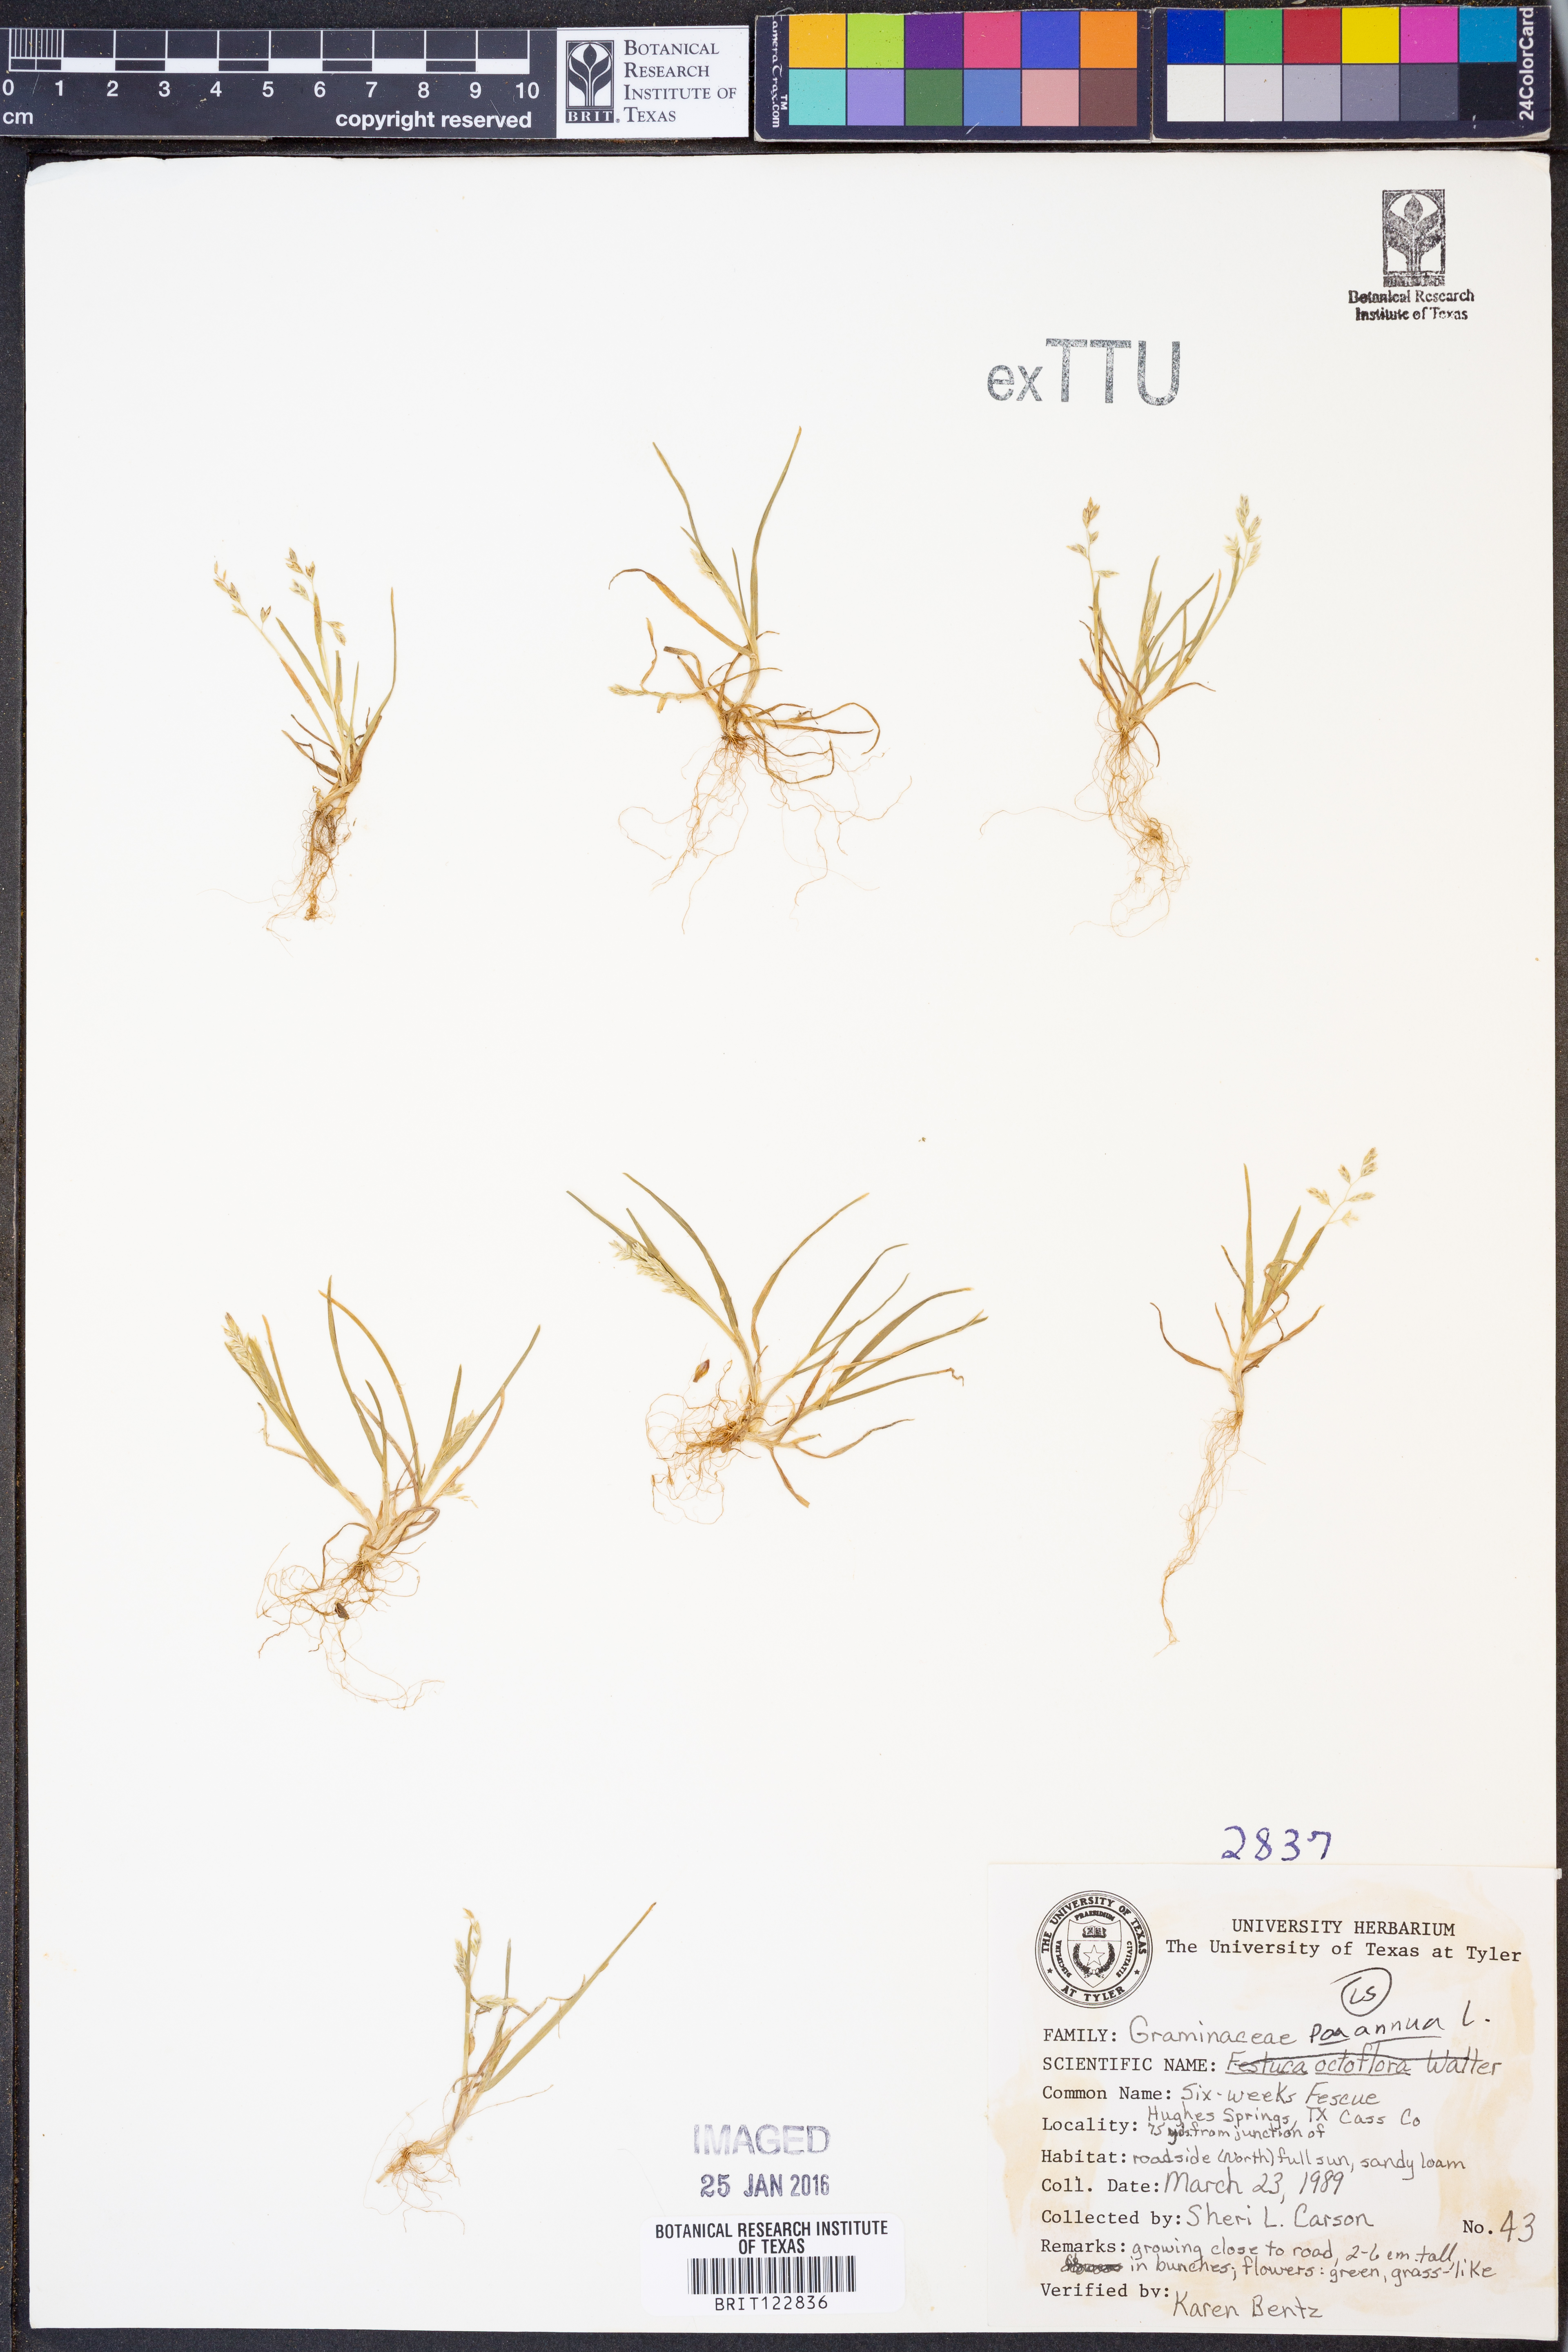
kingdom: Plantae
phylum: Tracheophyta
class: Liliopsida
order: Poales
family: Poaceae
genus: Poa
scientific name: Poa annua
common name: Annual bluegrass
